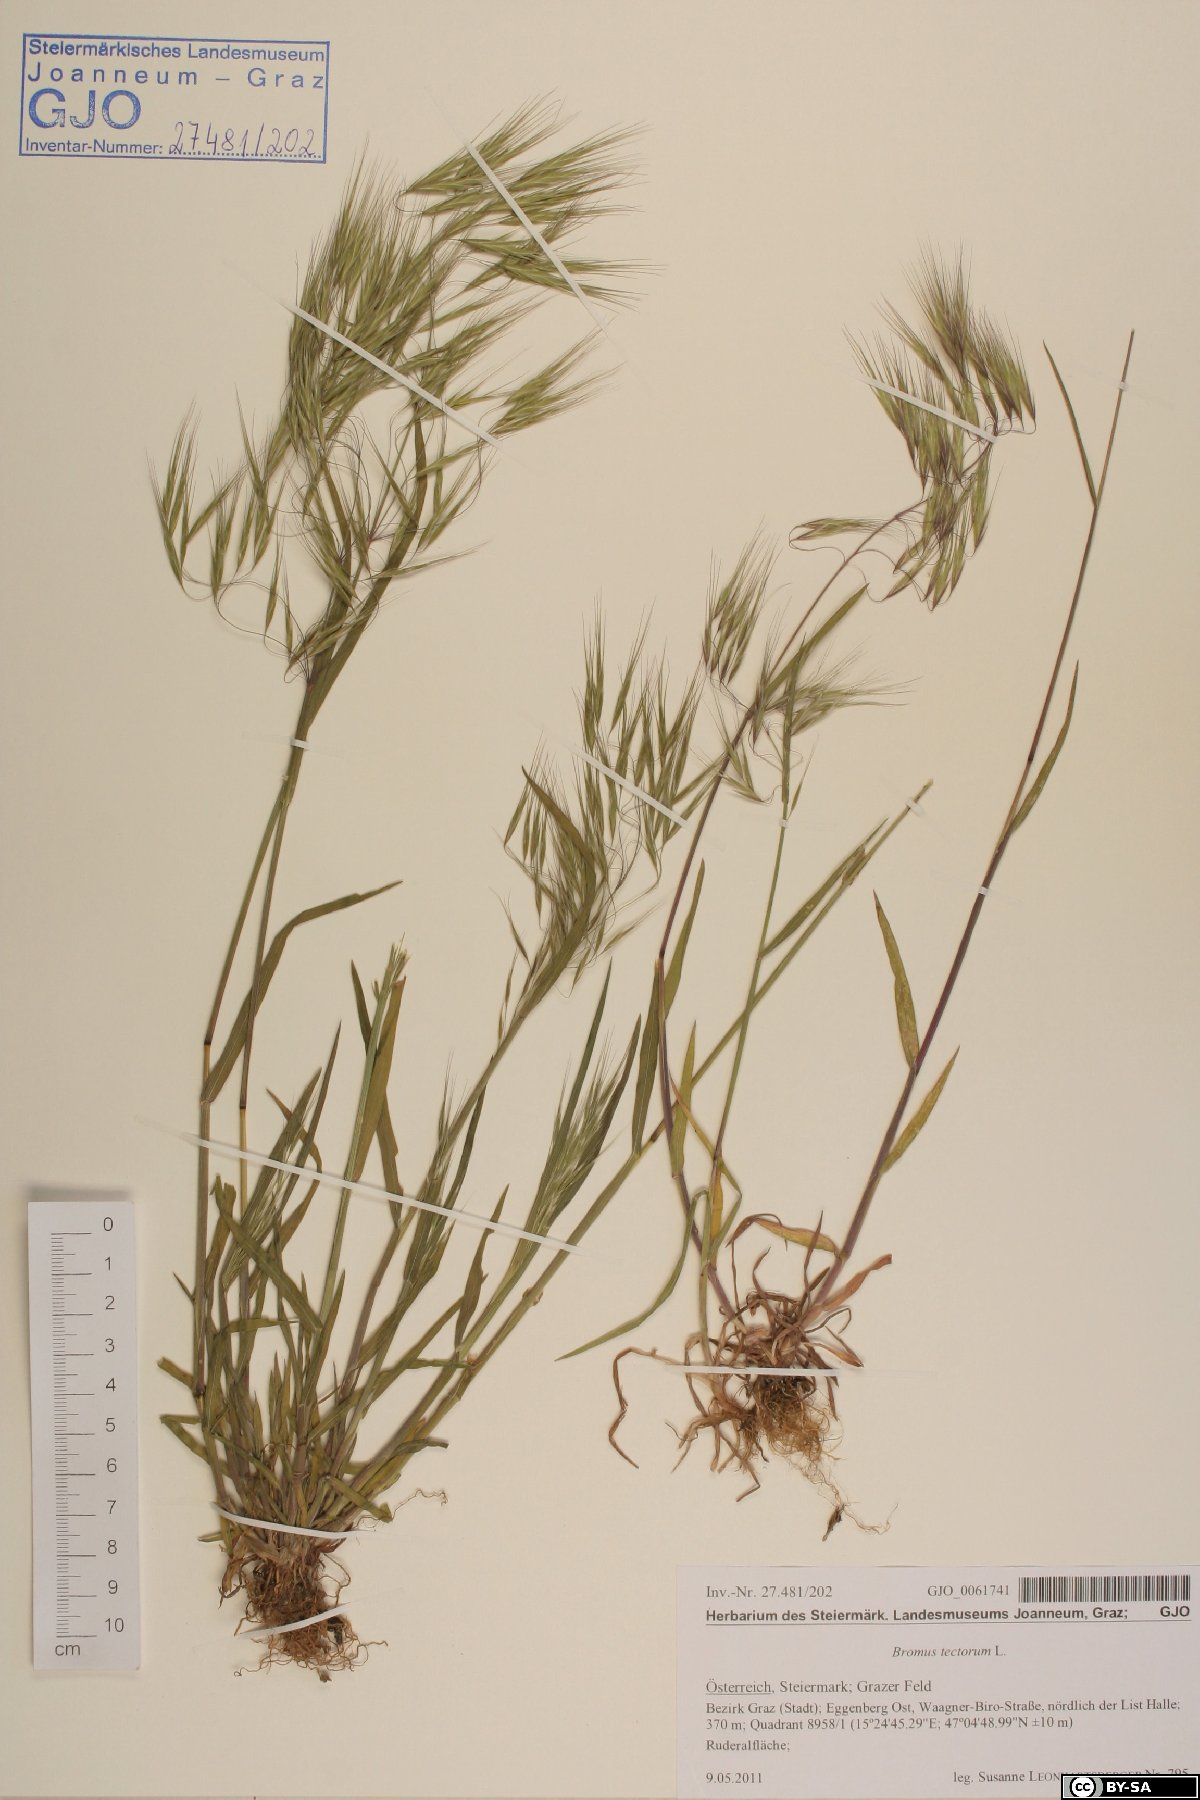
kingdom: Plantae
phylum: Tracheophyta
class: Liliopsida
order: Poales
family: Poaceae
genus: Bromus
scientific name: Bromus tectorum
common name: Cheatgrass
